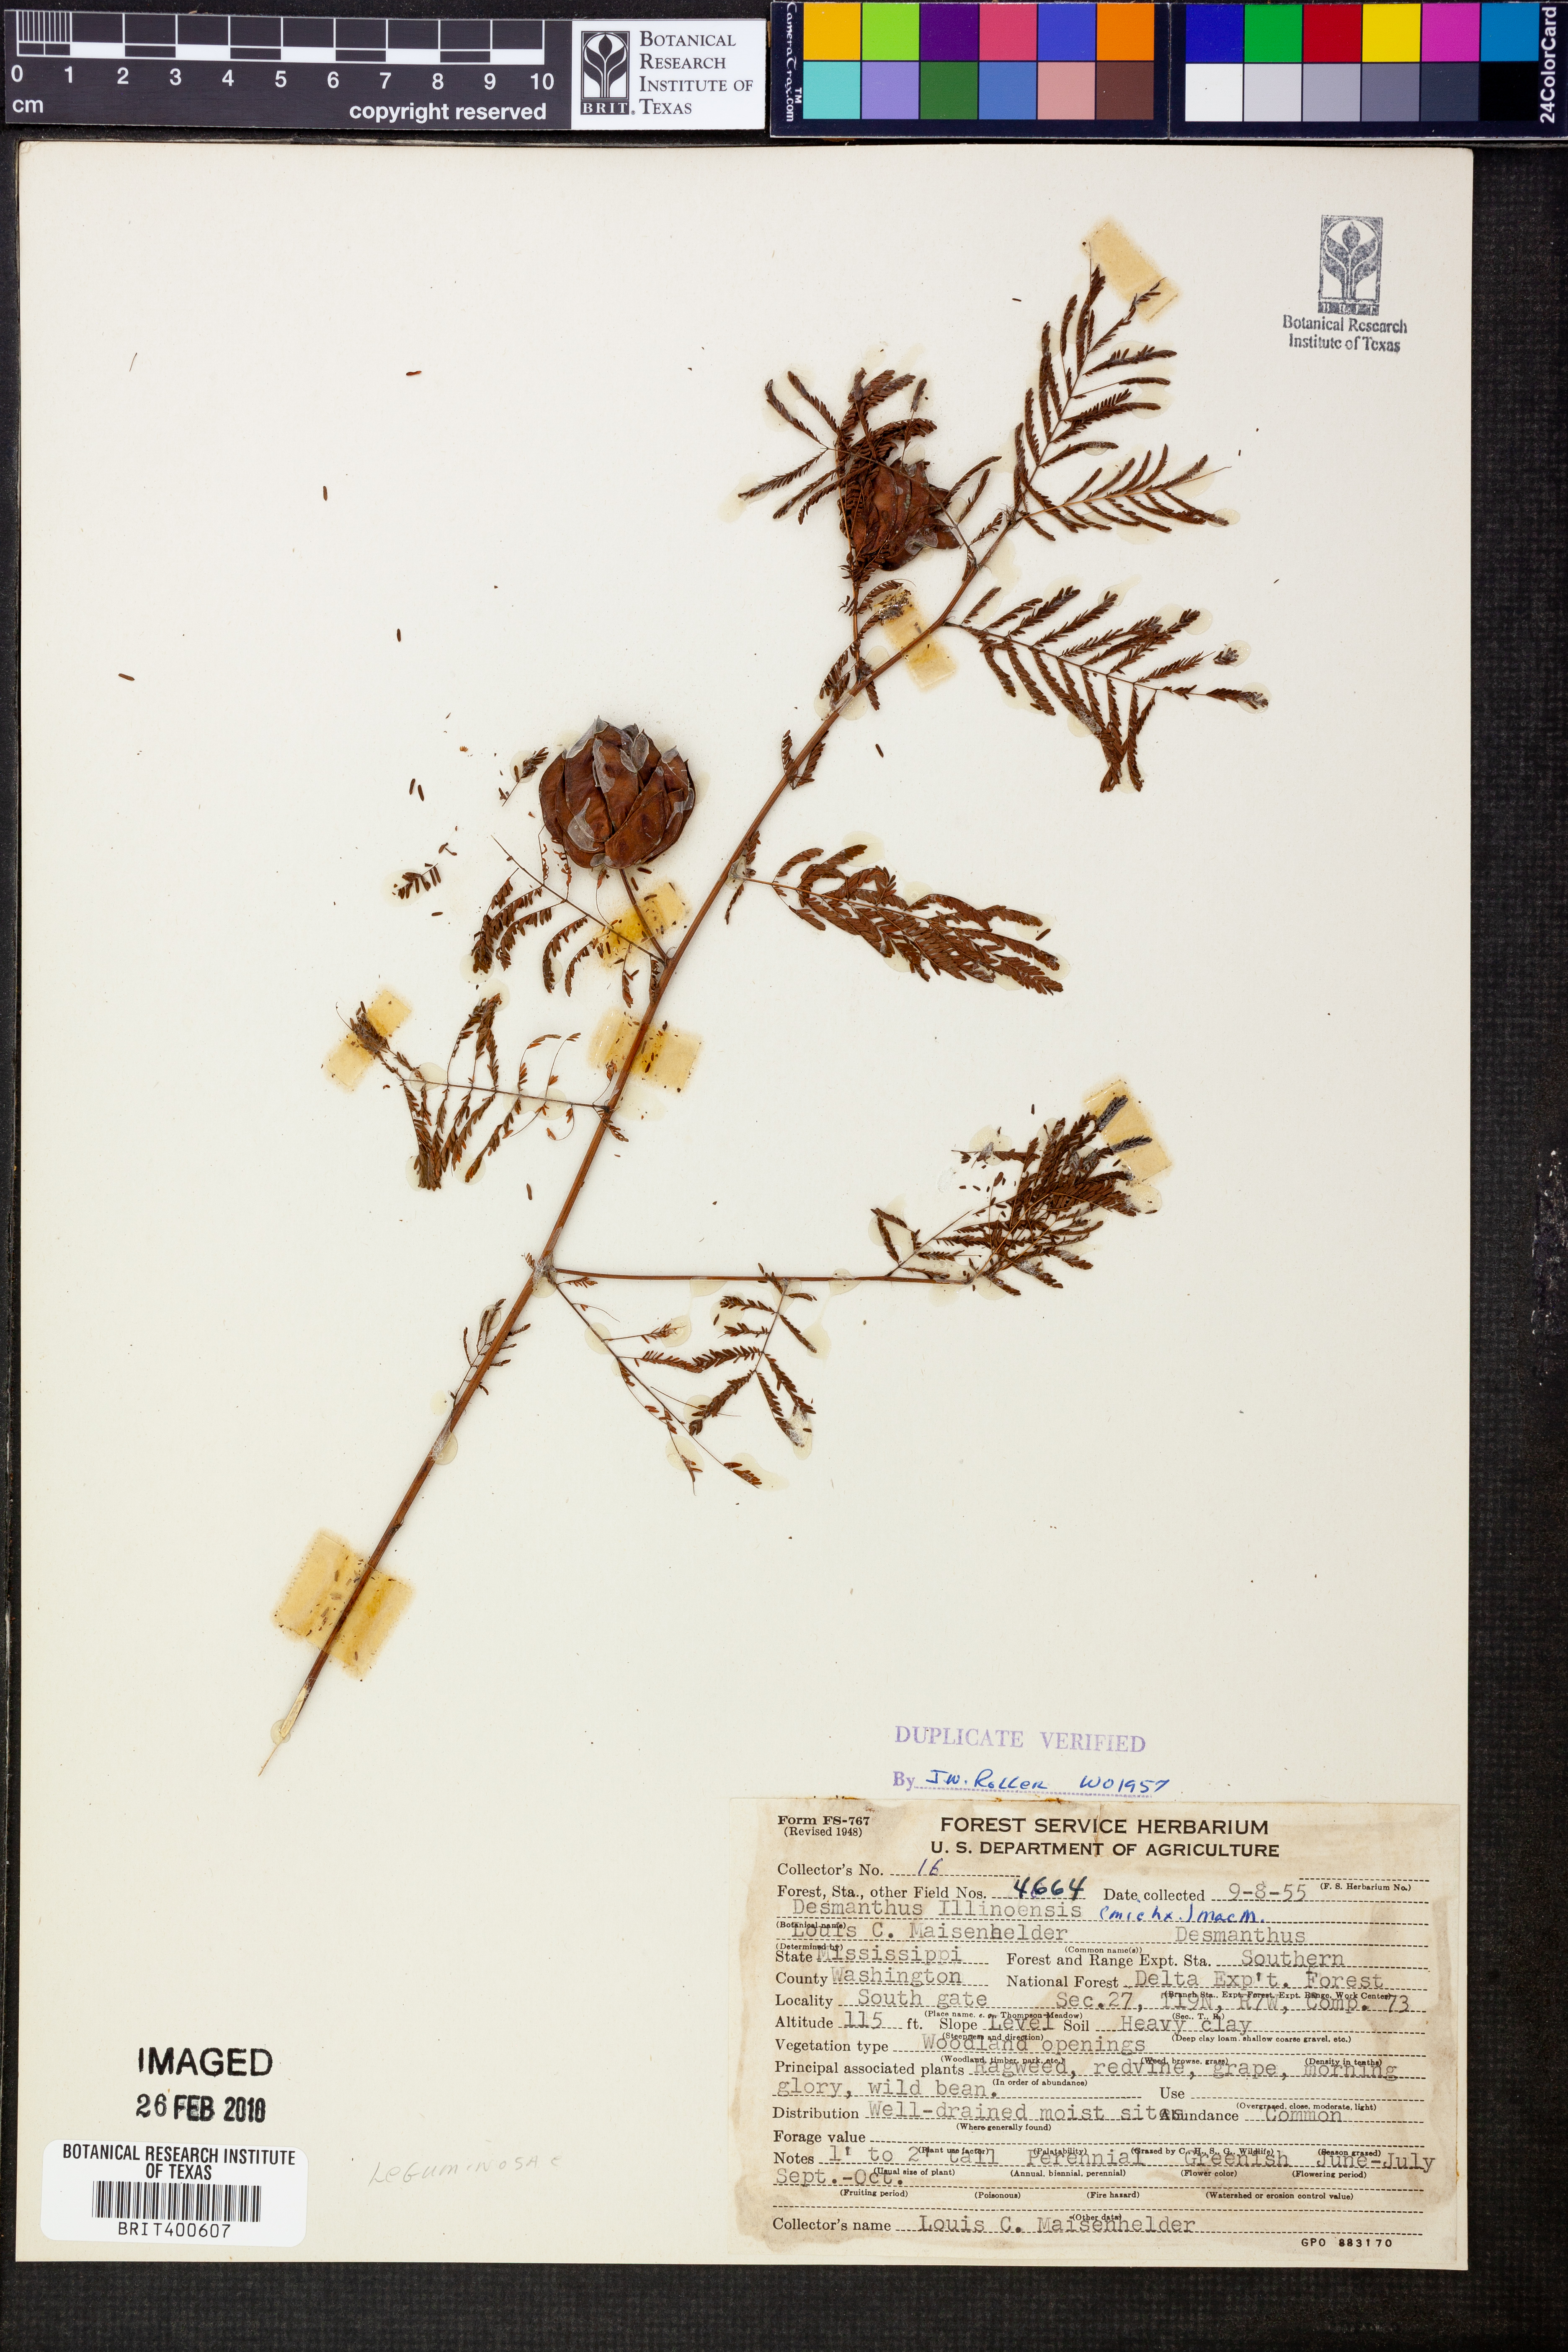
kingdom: Plantae
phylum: Tracheophyta
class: Magnoliopsida
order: Fabales
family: Fabaceae
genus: Desmanthus
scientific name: Desmanthus illinoensis
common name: Illinois bundle-flower
